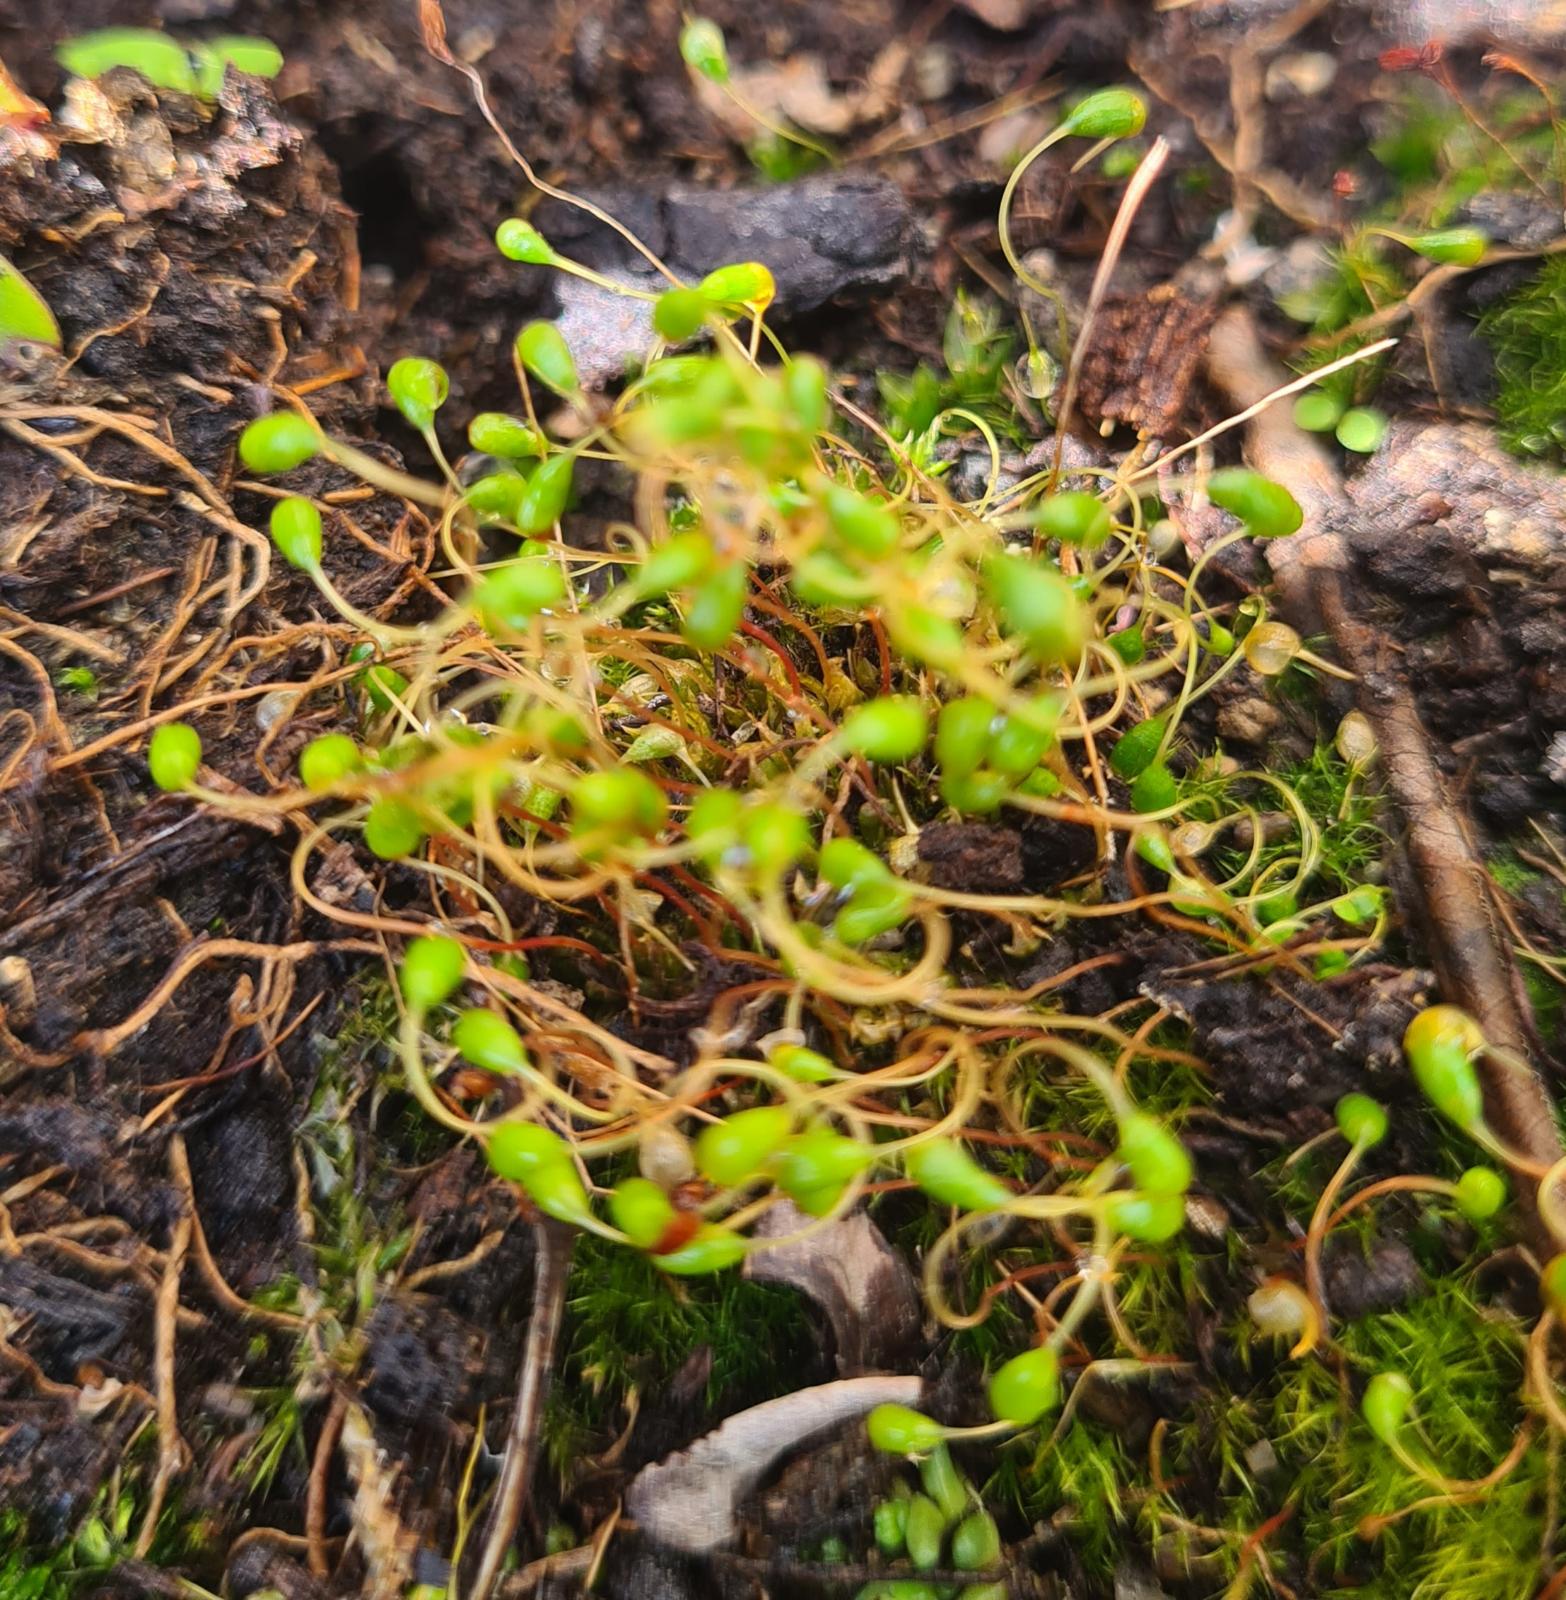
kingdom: Plantae
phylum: Bryophyta
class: Bryopsida
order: Funariales
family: Funariaceae
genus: Funaria
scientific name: Funaria hygrometrica
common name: Almindelig snobørste
